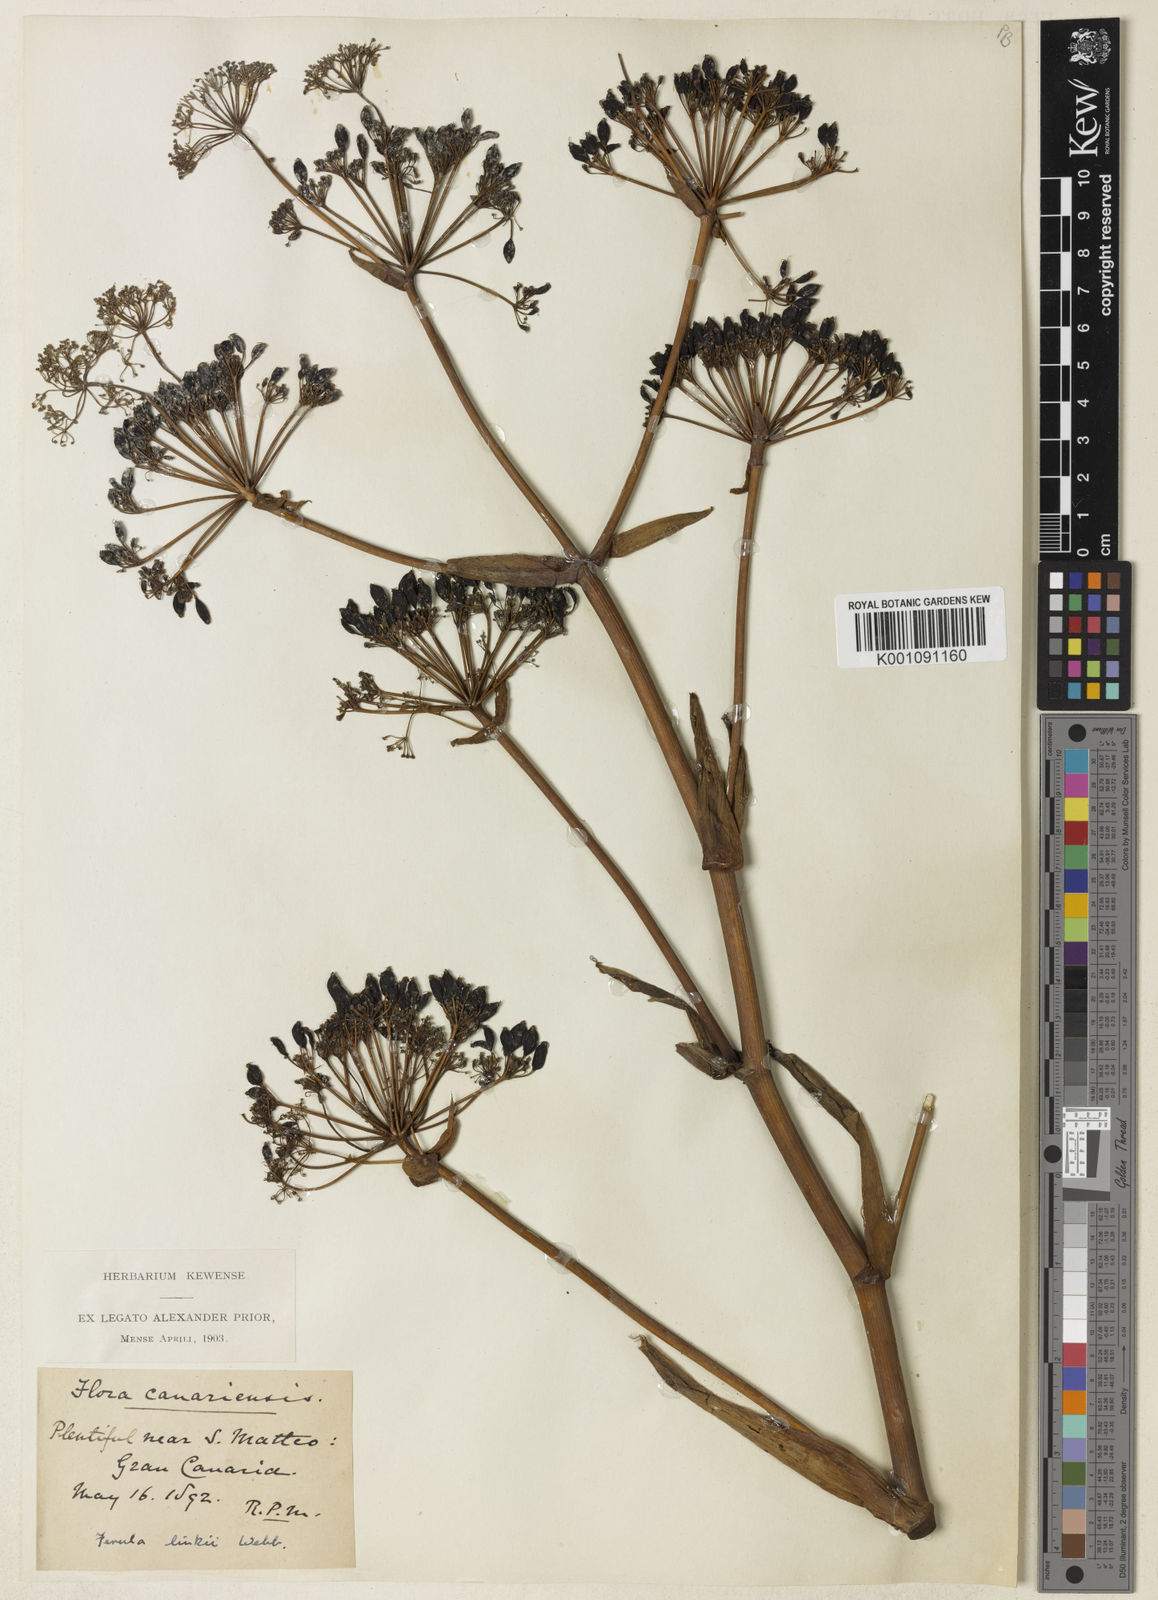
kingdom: Plantae
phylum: Tracheophyta
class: Magnoliopsida
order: Apiales
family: Apiaceae
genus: Ferula
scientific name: Ferula communis
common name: Giant fennel
